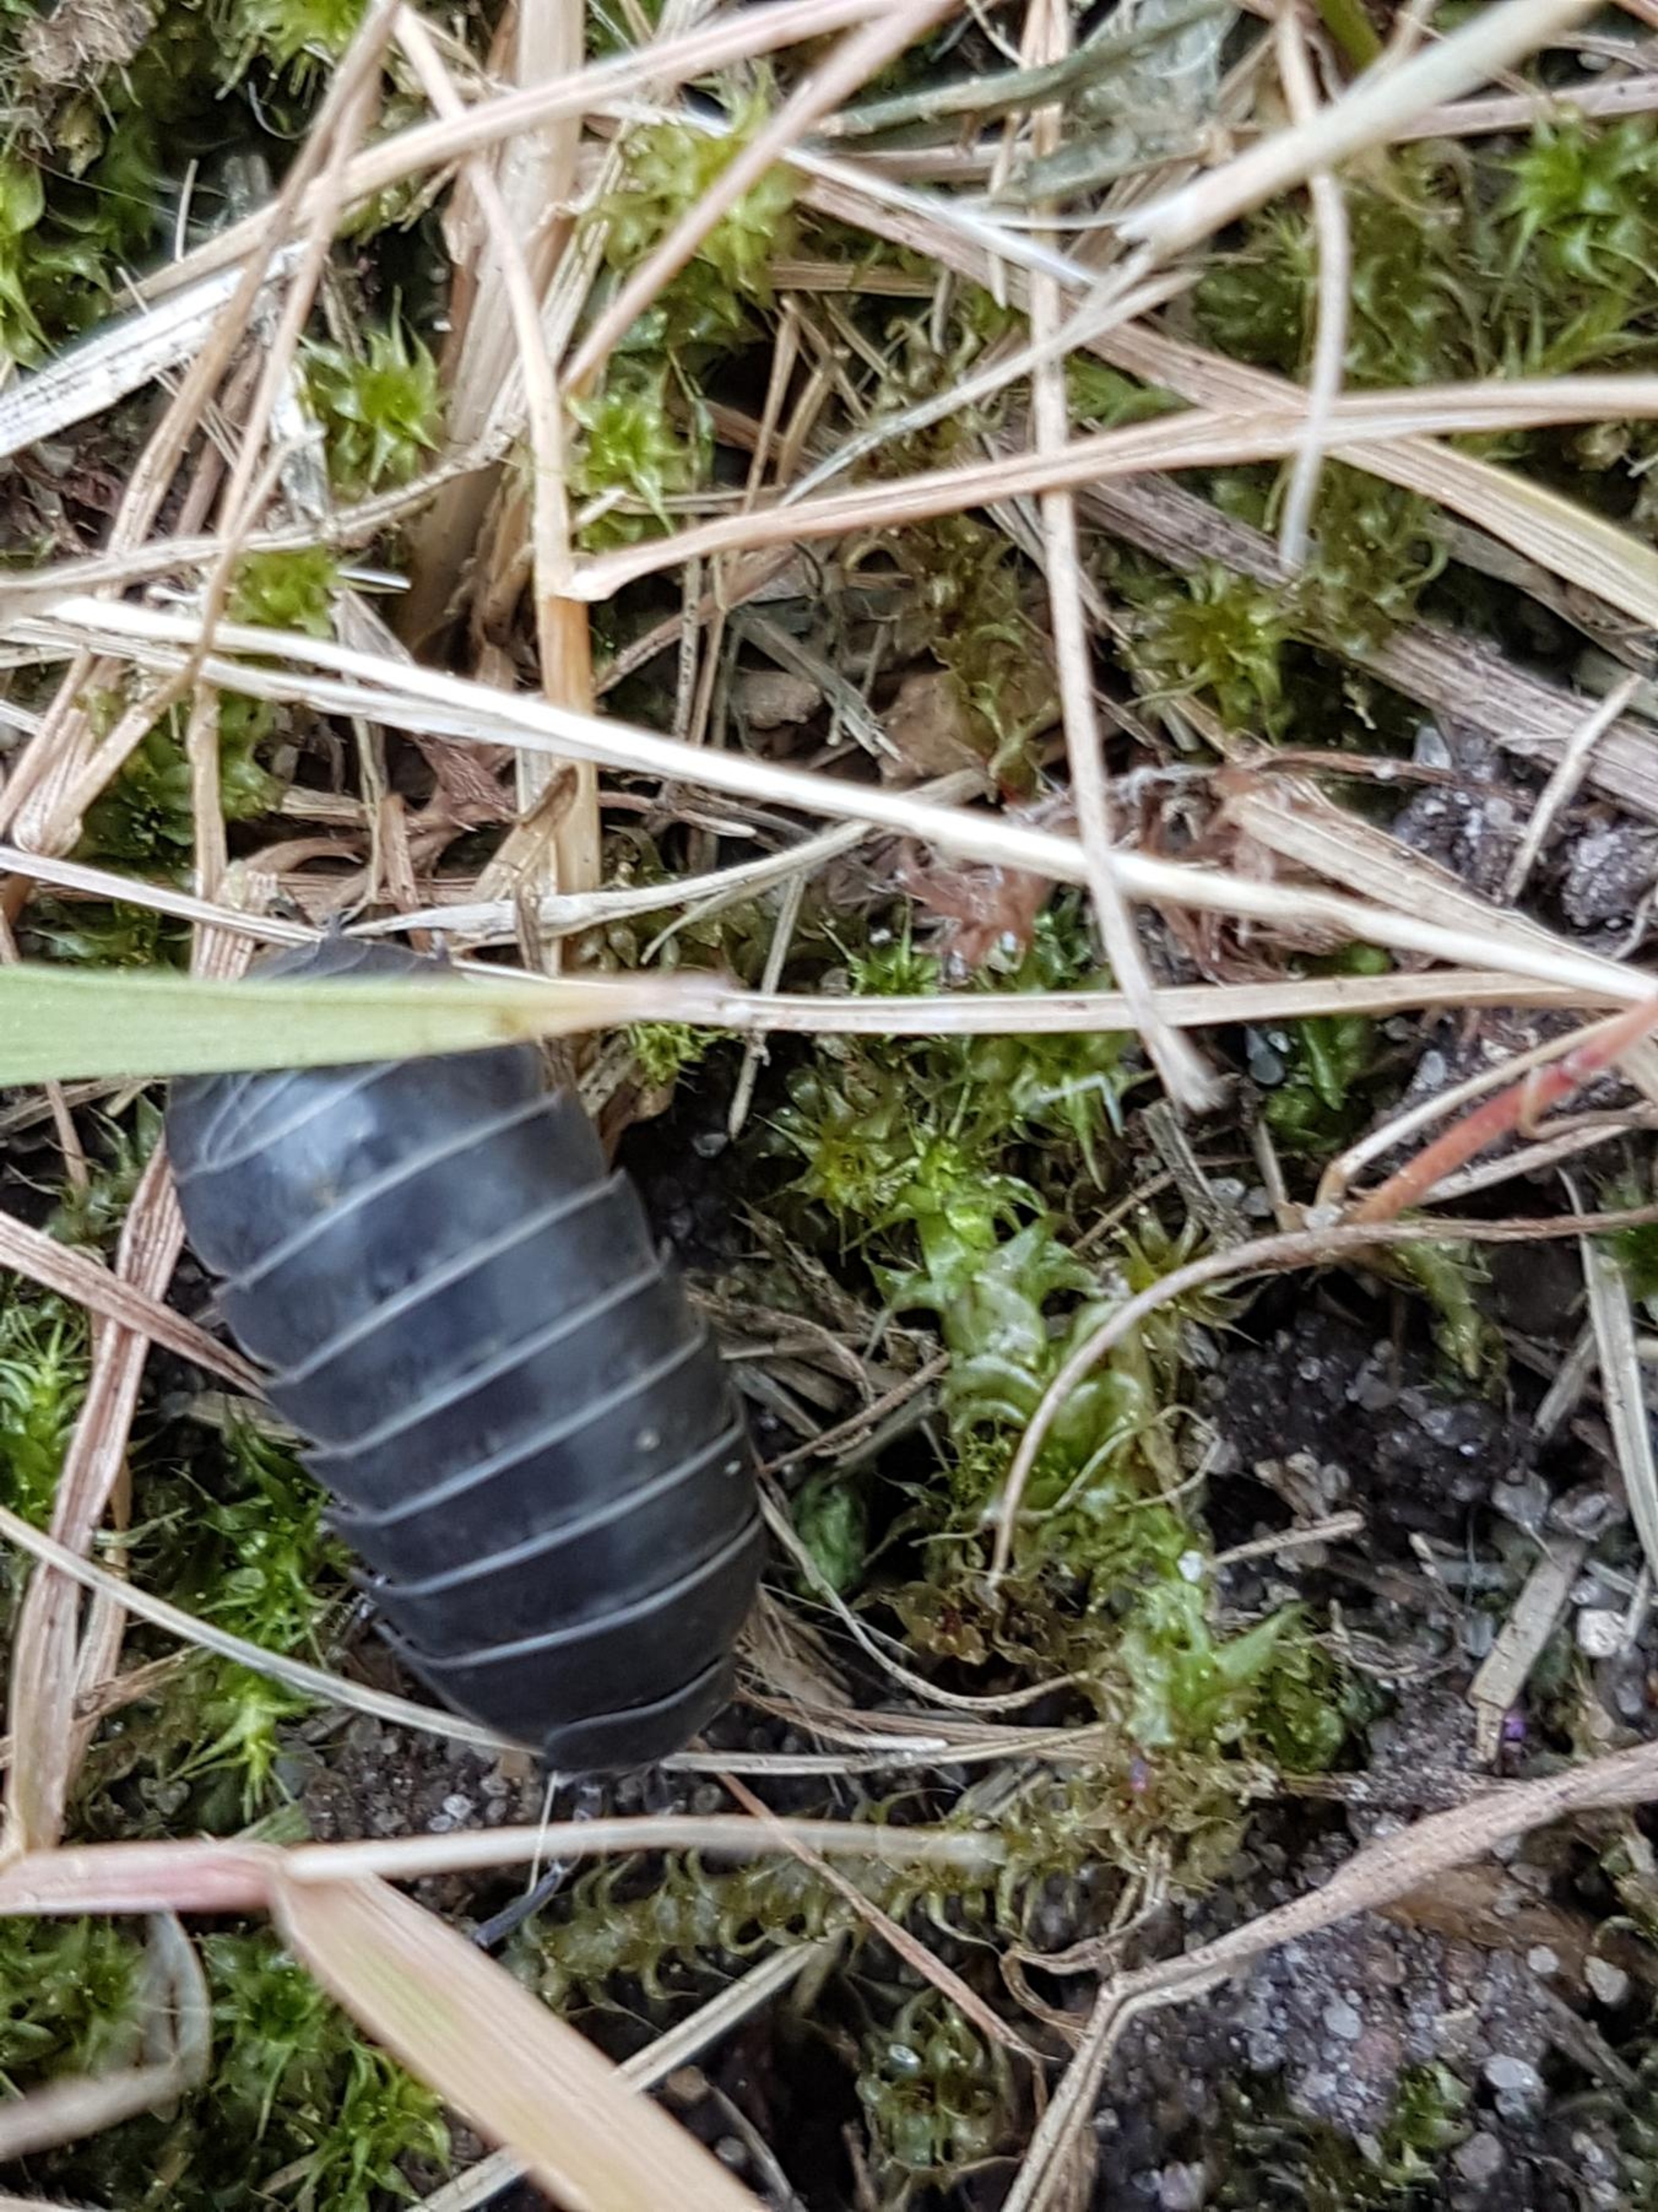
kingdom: Animalia
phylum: Arthropoda
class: Malacostraca
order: Isopoda
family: Armadillidiidae
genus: Armadillidium
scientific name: Armadillidium vulgare
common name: Almindelig kuglebænkebider
